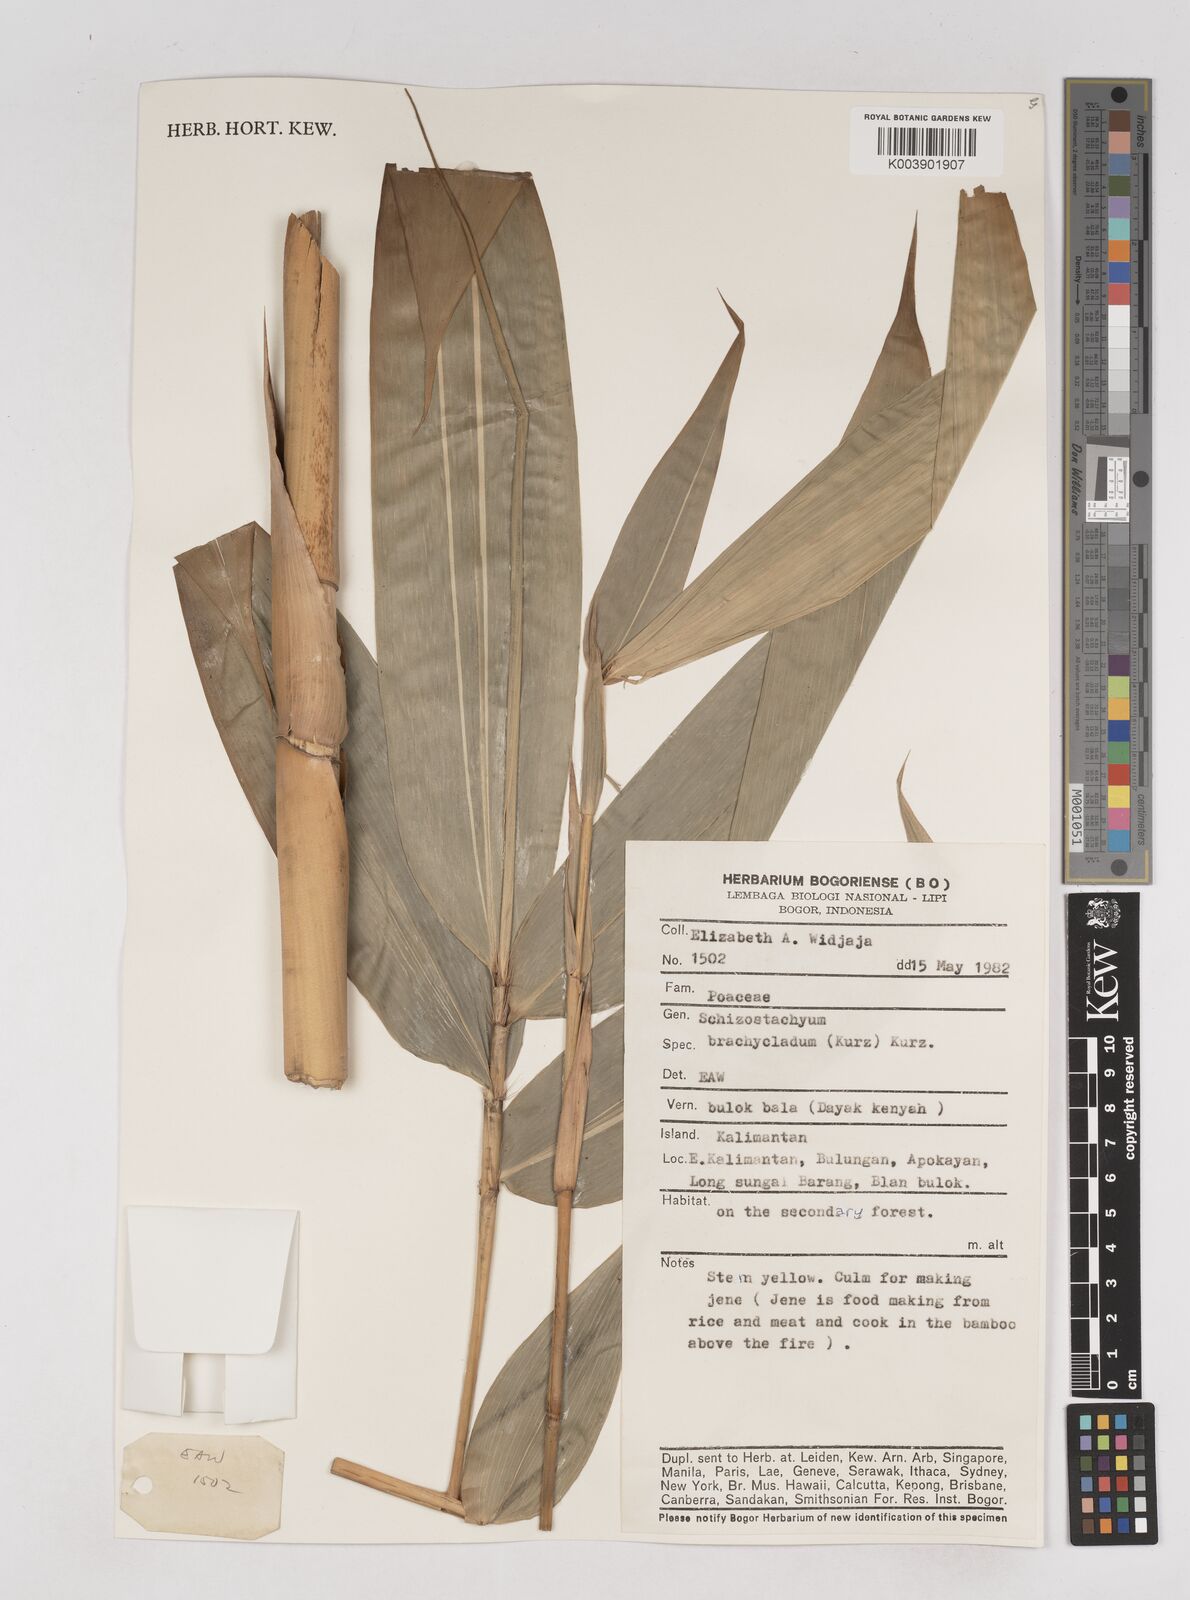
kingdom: Plantae
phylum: Tracheophyta
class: Liliopsida
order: Poales
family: Poaceae
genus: Schizostachyum
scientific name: Schizostachyum brachycladum
